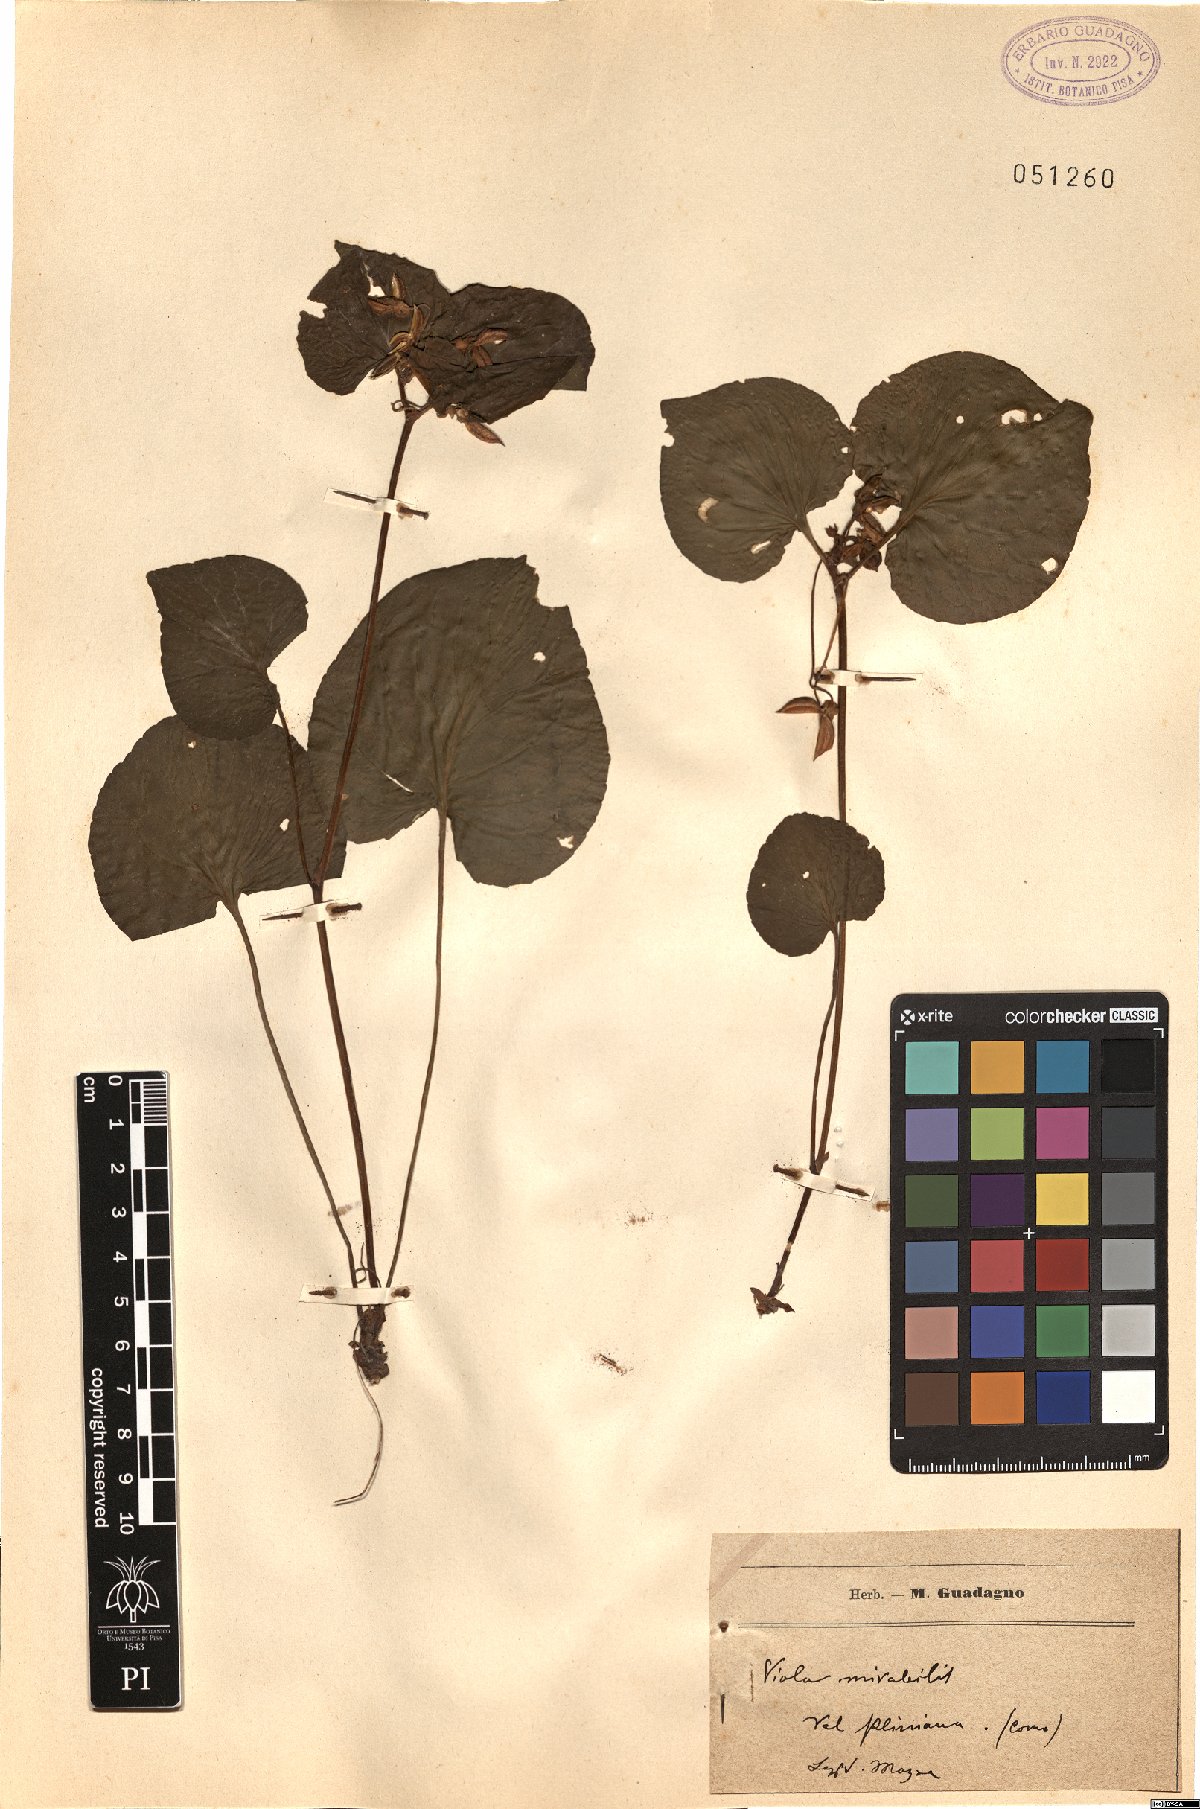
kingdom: Plantae
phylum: Tracheophyta
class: Magnoliopsida
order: Malpighiales
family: Violaceae
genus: Viola
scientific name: Viola mirabilis
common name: Wonder violet
